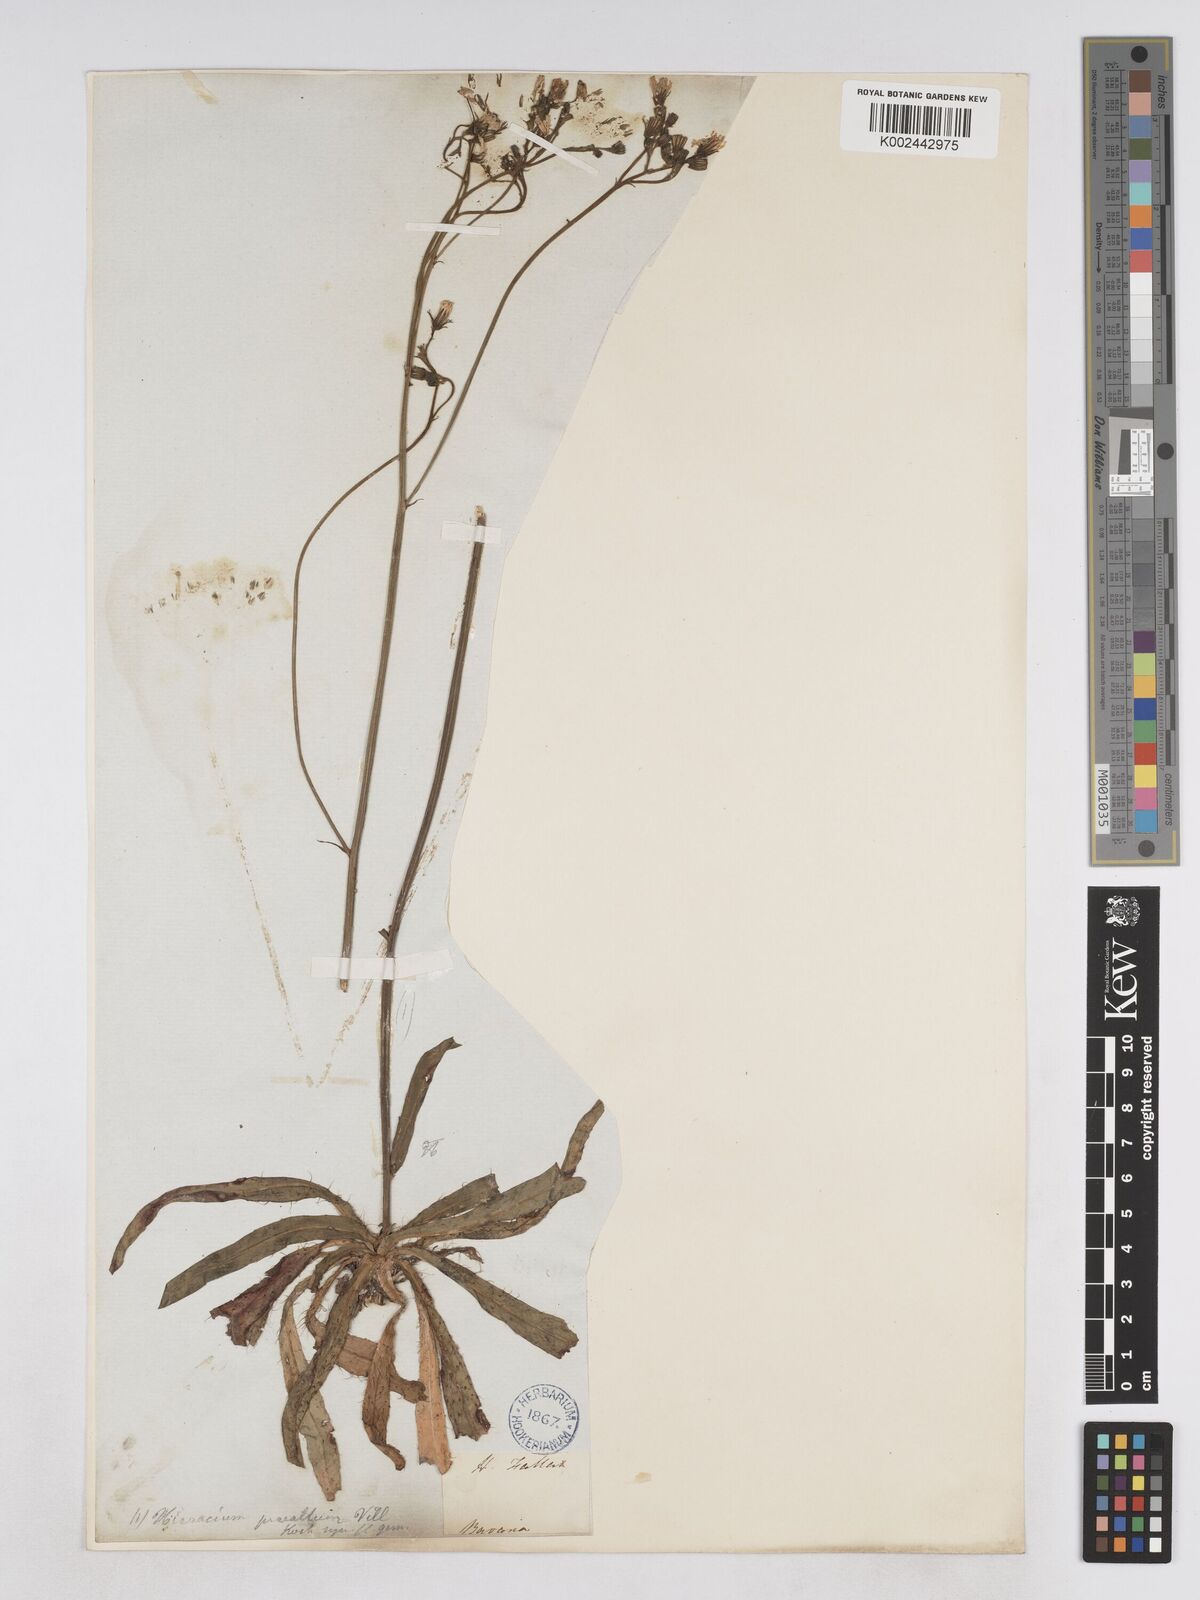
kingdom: Plantae
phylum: Tracheophyta
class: Magnoliopsida
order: Asterales
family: Asteraceae
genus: Pilosella
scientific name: Pilosella piloselloides
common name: Glaucous king-devil
